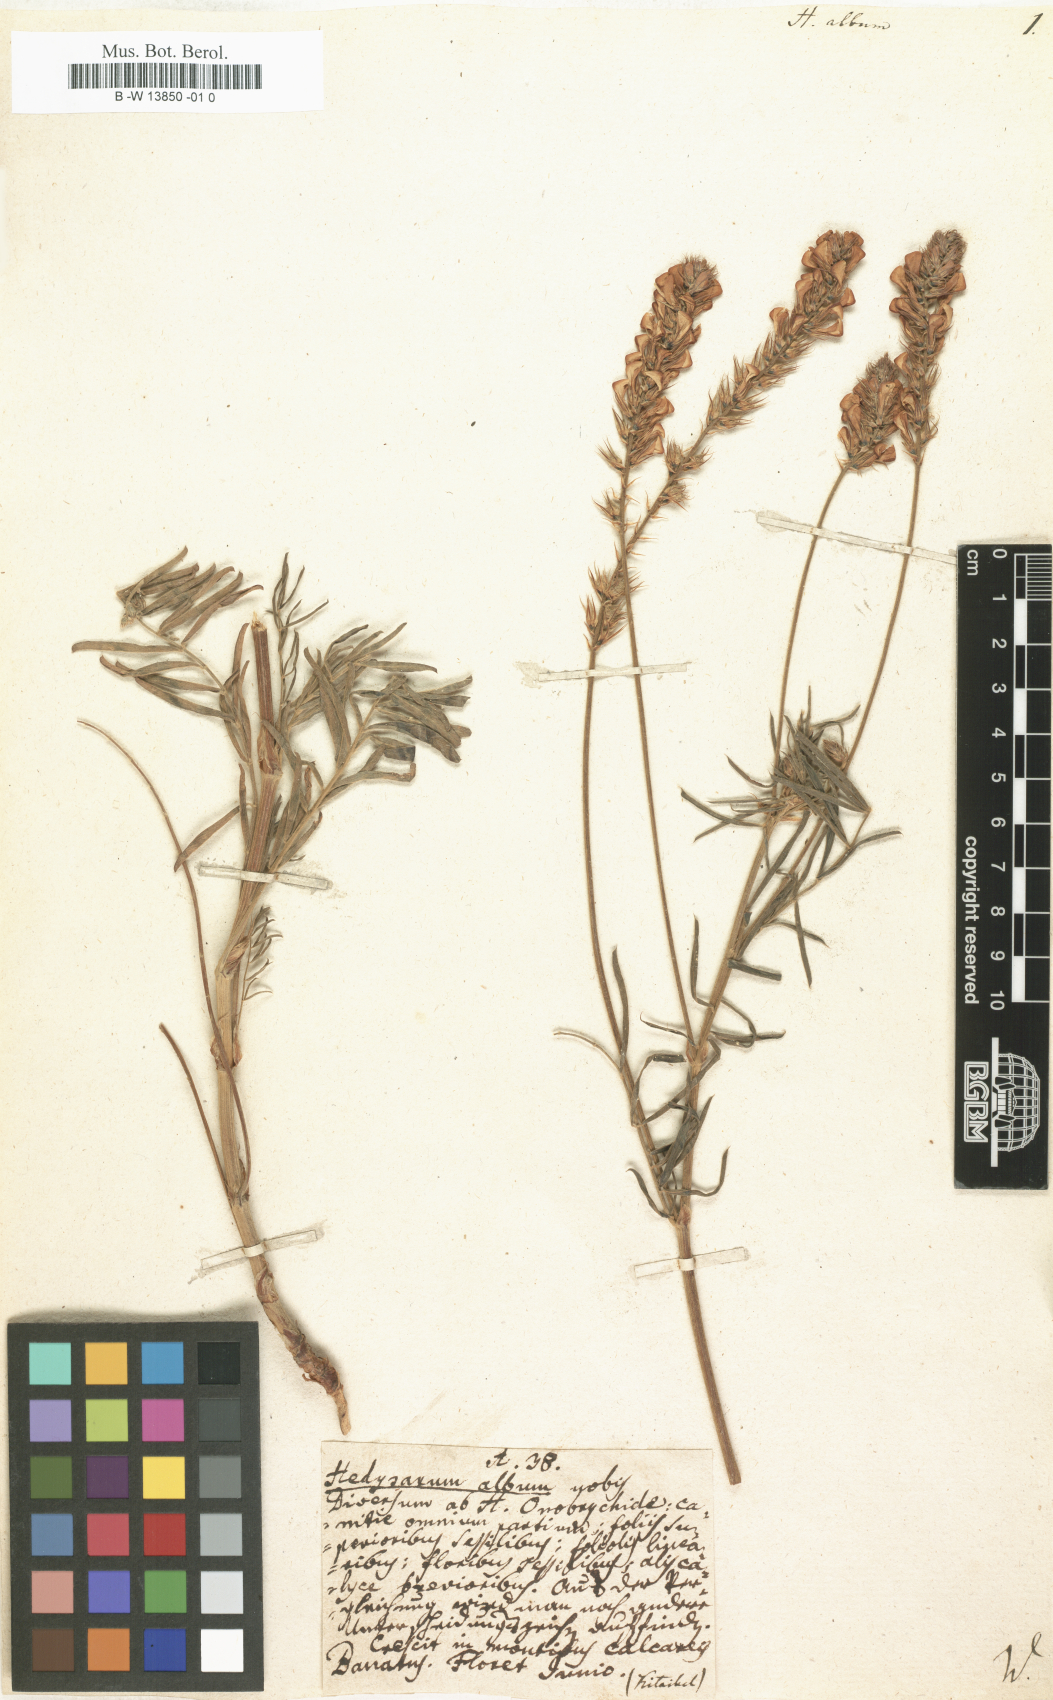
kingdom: Plantae
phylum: Tracheophyta
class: Magnoliopsida
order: Fabales
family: Fabaceae
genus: Onobrychis
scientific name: Onobrychis alba
